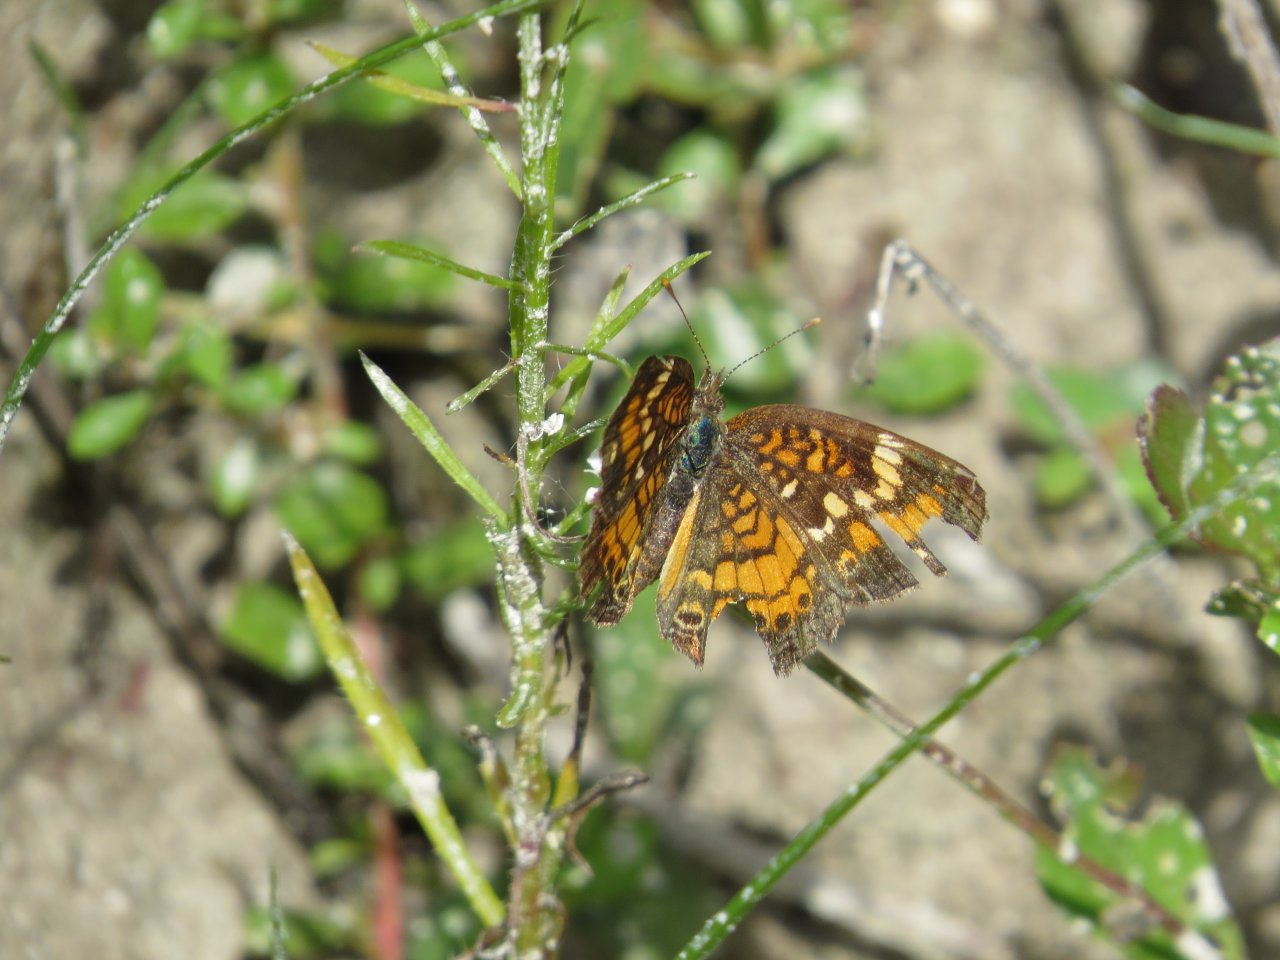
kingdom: Animalia
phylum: Arthropoda
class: Insecta
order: Lepidoptera
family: Nymphalidae
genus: Phyciodes
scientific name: Phyciodes phaon
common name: Phaon Crescent
